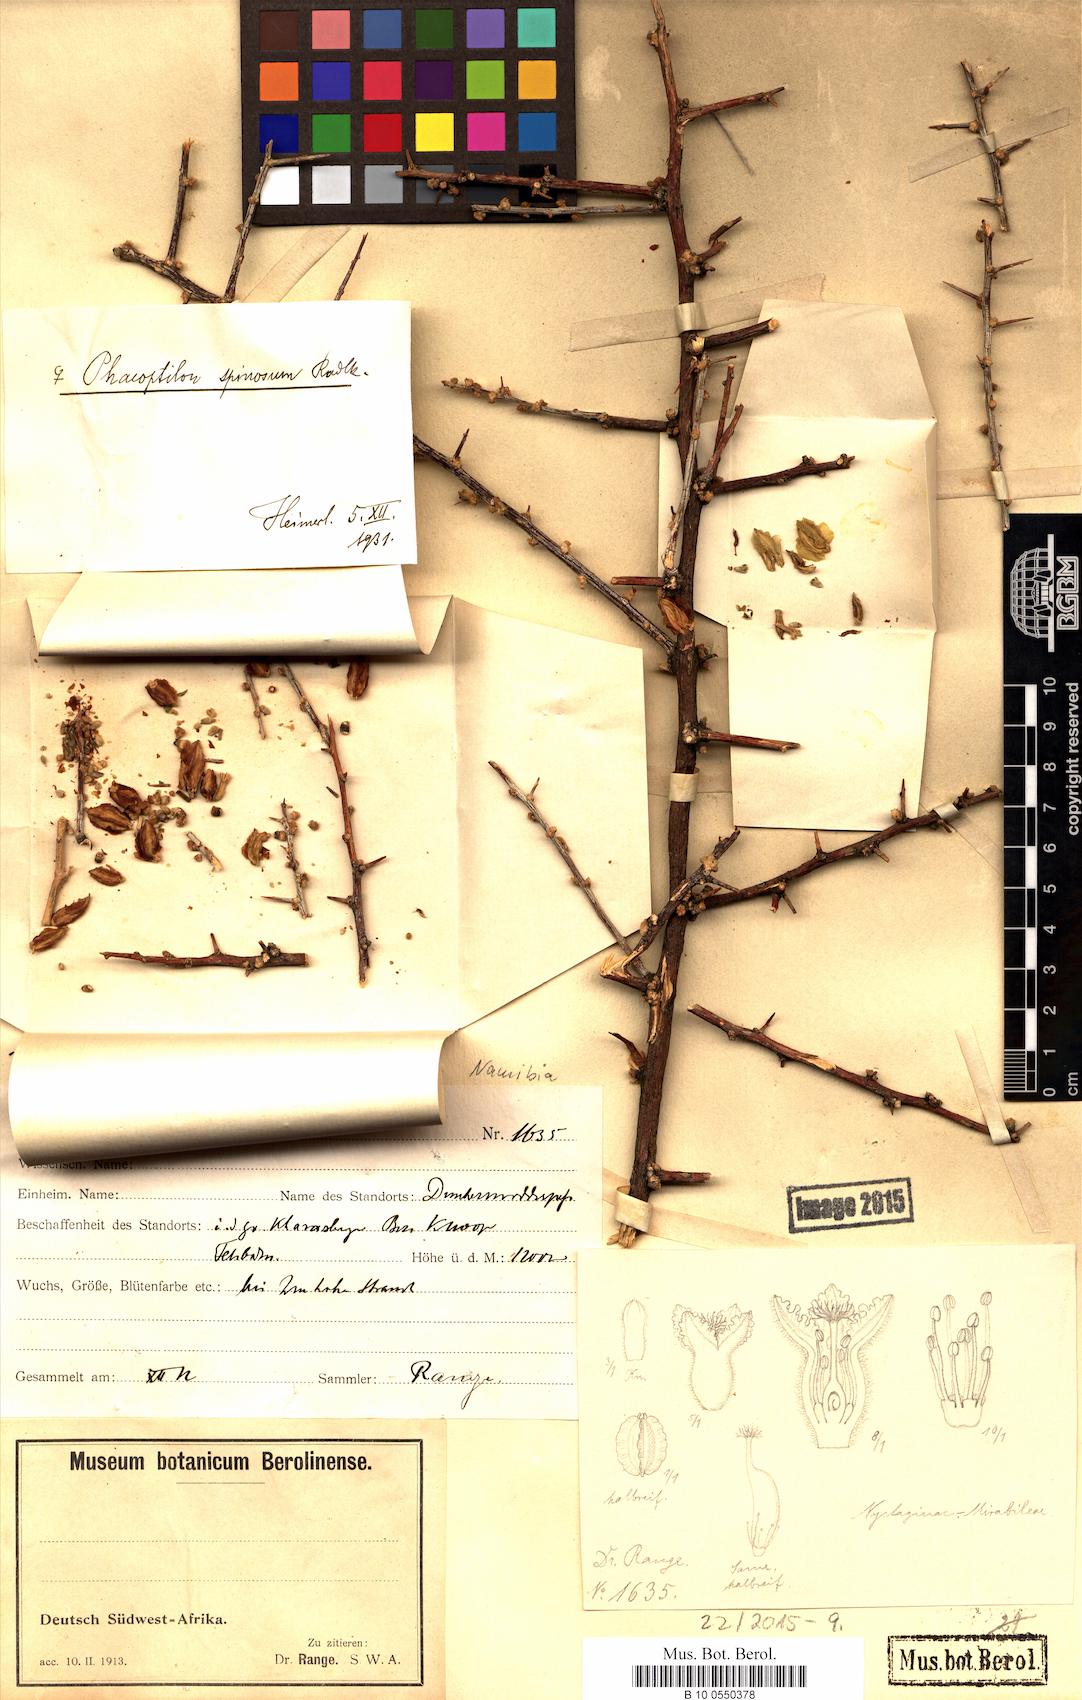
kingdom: Plantae
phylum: Tracheophyta
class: Magnoliopsida
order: Caryophyllales
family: Nyctaginaceae
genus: Phaeoptilum
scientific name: Phaeoptilum spinosum
